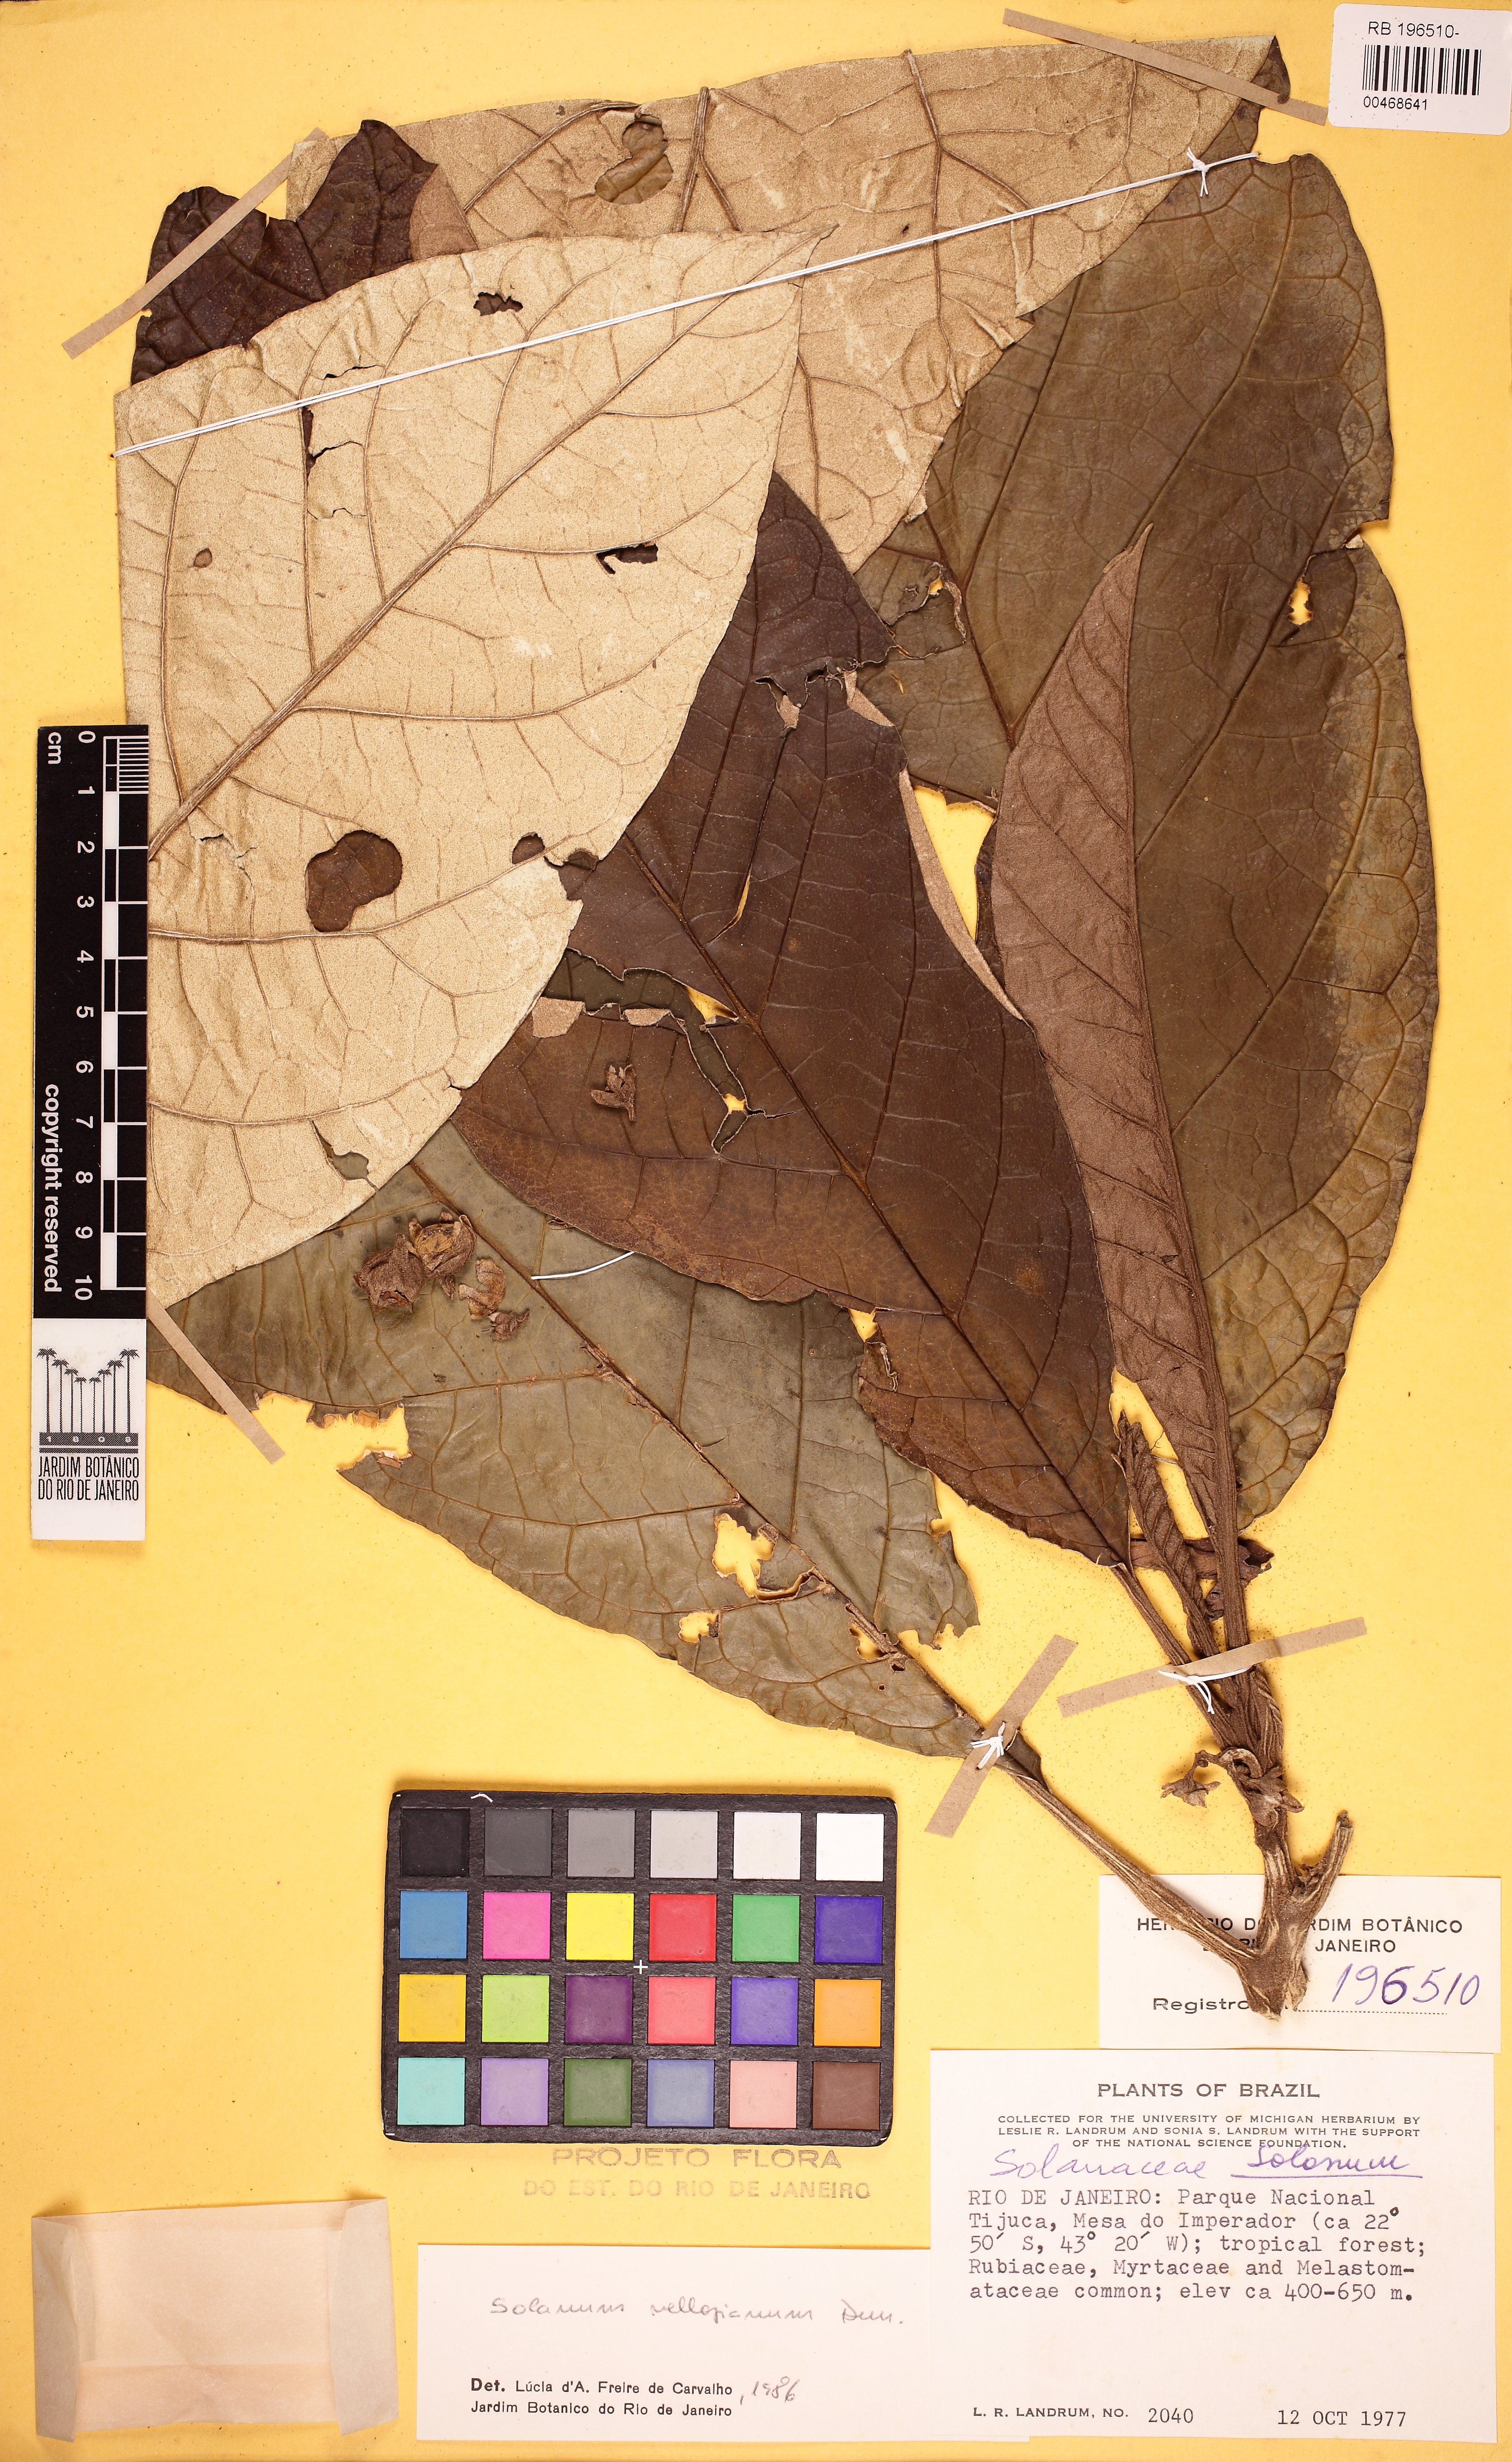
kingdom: Plantae
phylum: Tracheophyta
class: Magnoliopsida
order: Solanales
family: Solanaceae
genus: Solanum
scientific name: Solanum vellozianum
